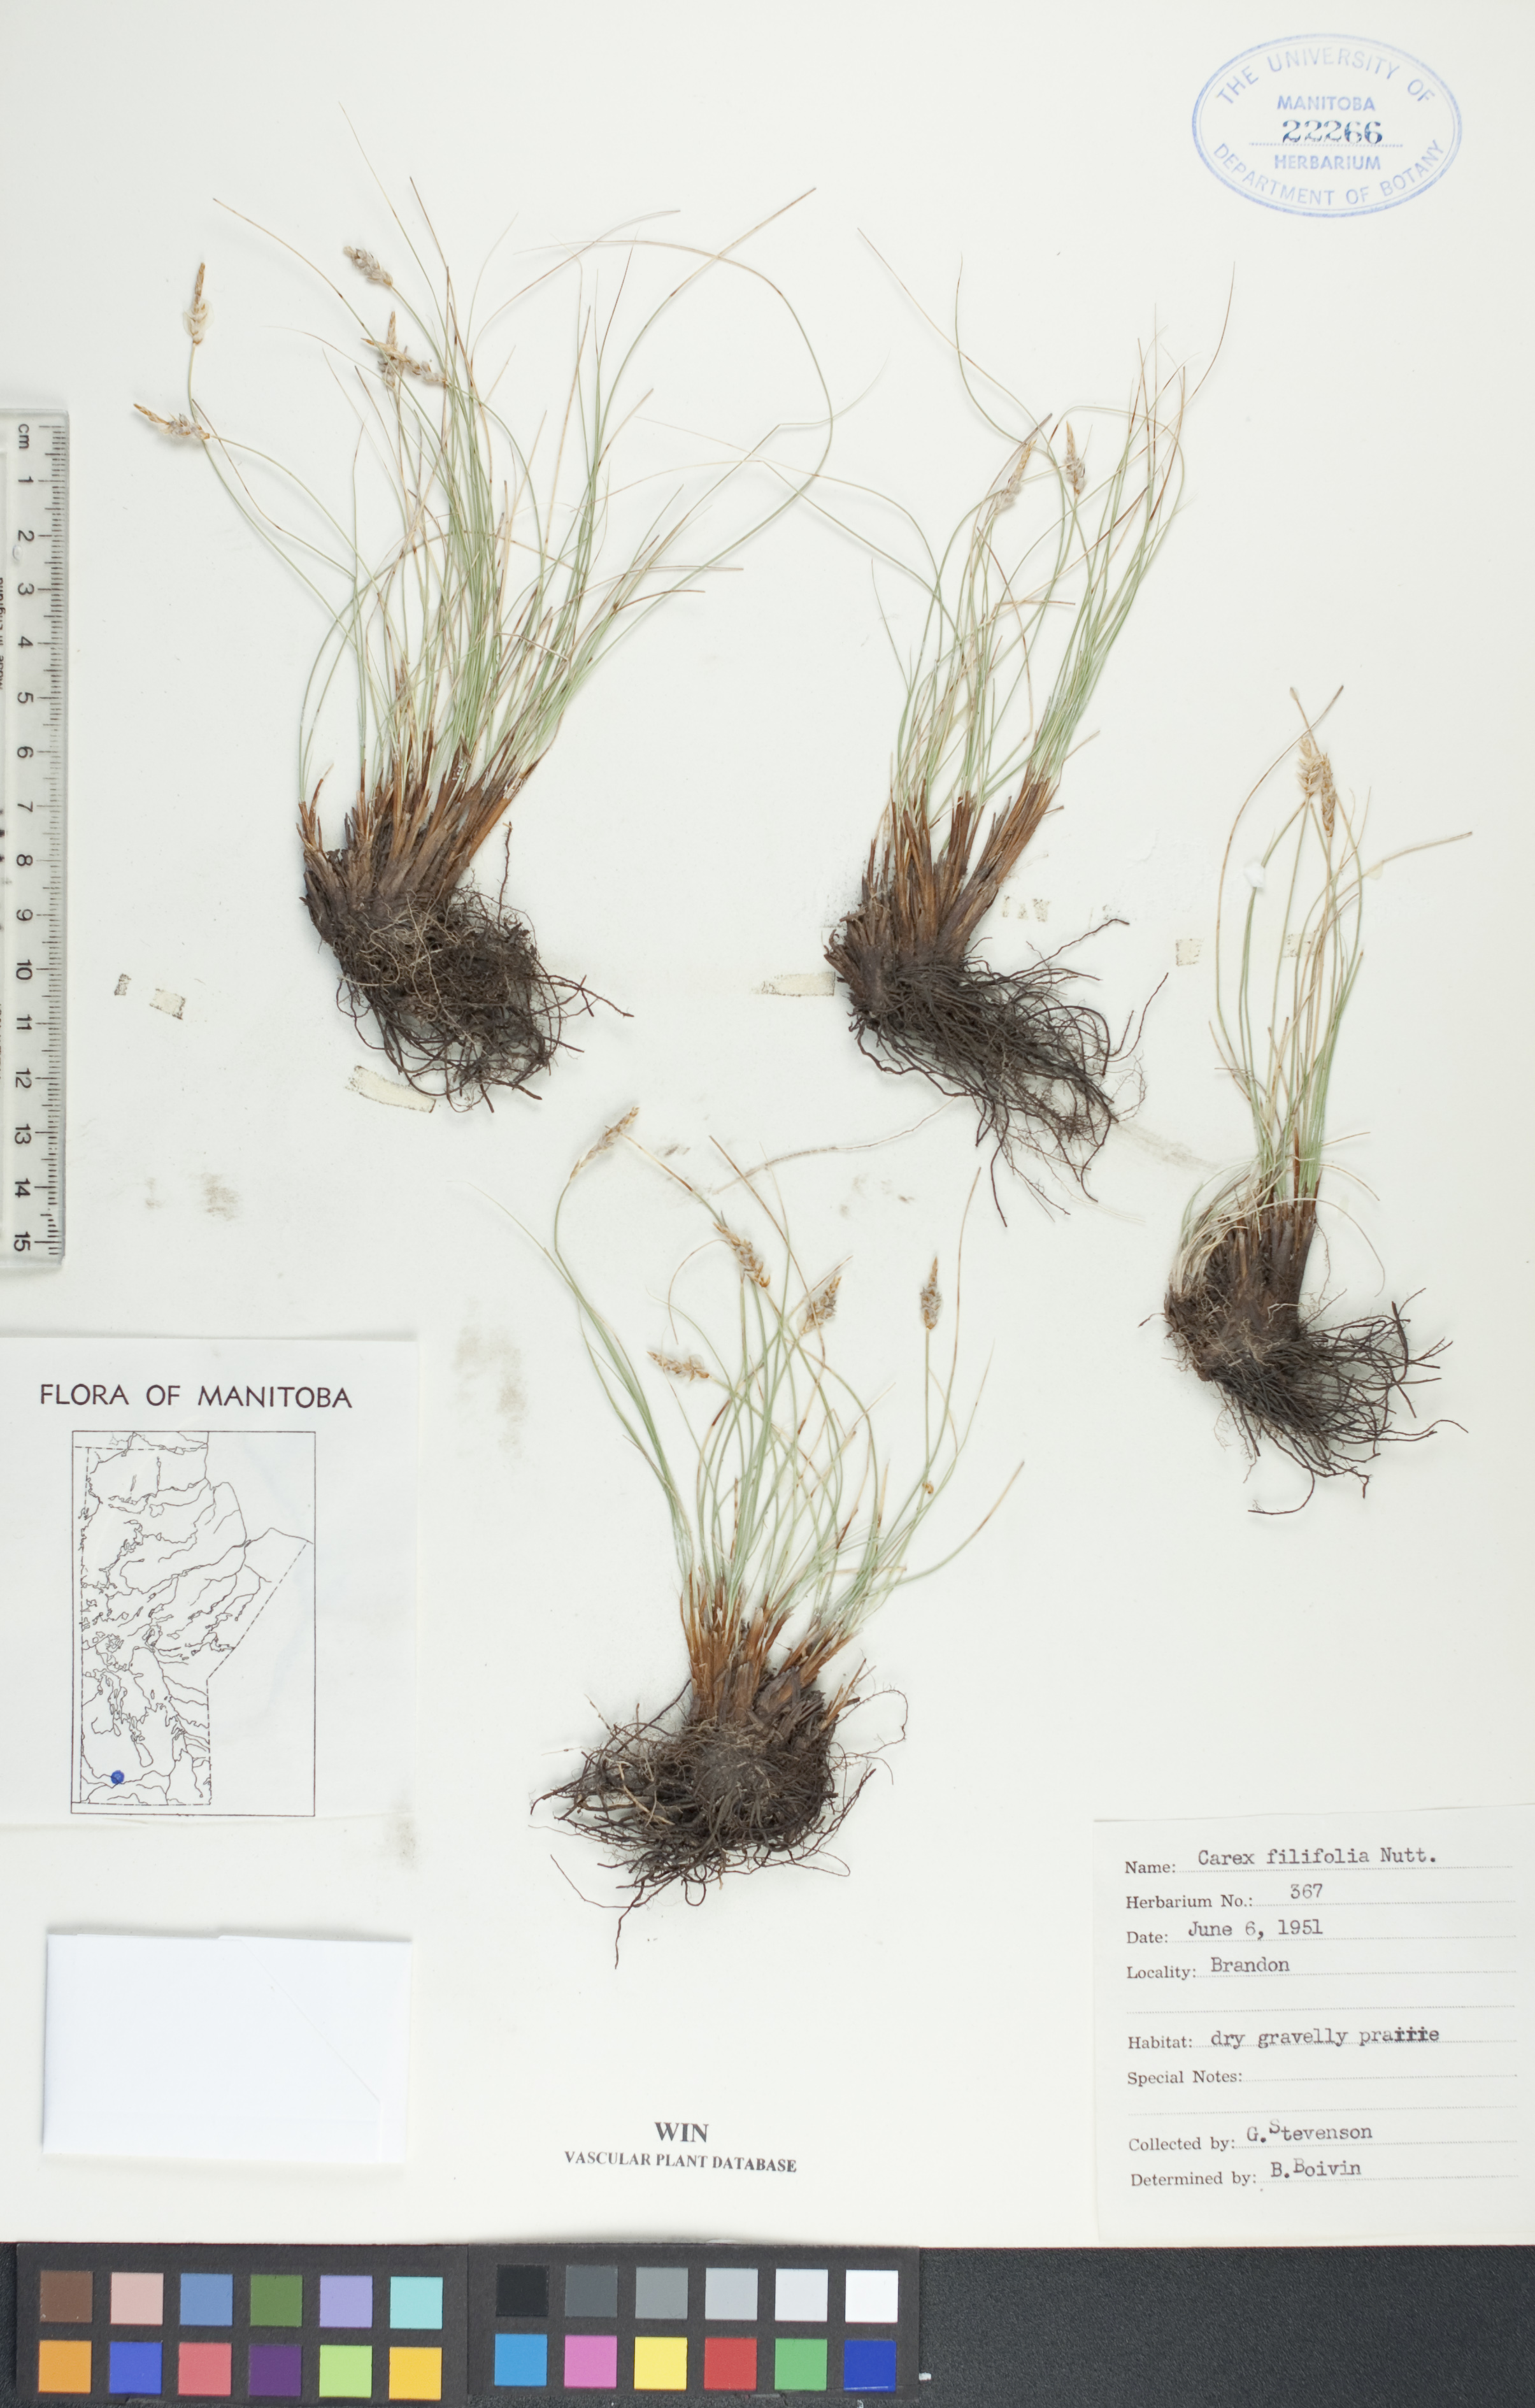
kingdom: Plantae
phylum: Tracheophyta
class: Liliopsida
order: Poales
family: Cyperaceae
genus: Carex
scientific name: Carex filifolia
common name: Threadleaf sedge
